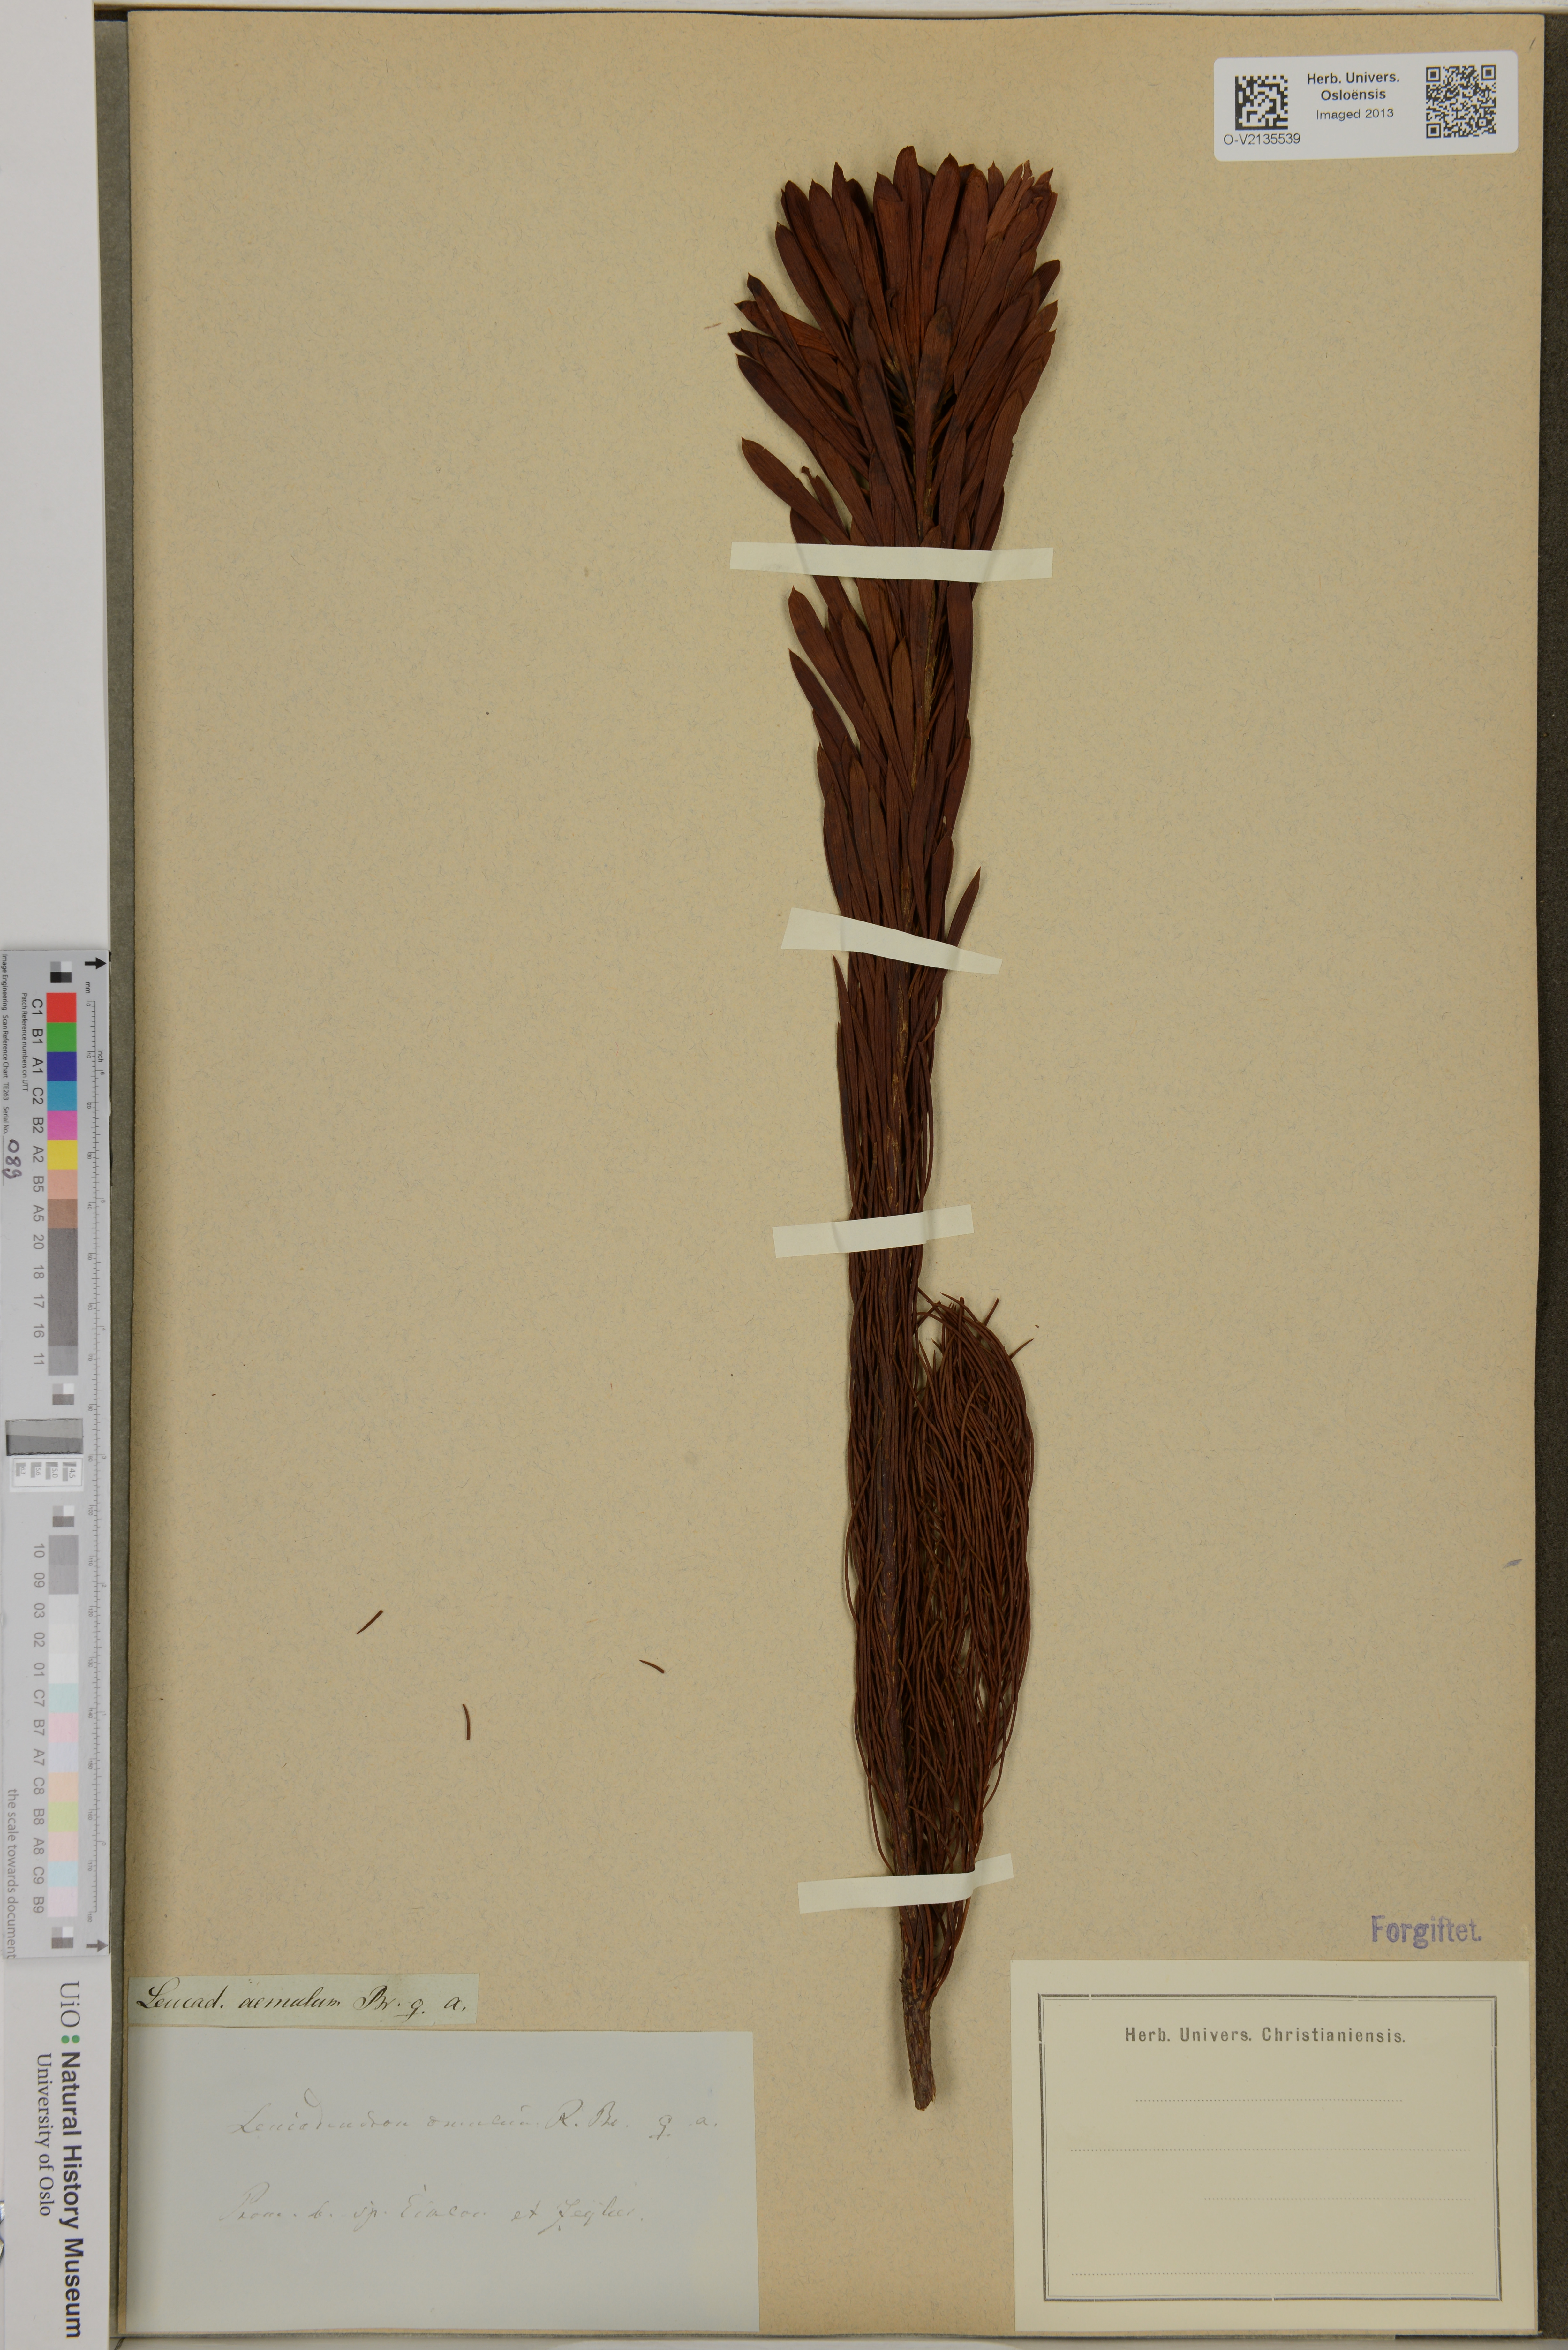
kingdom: Plantae
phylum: Tracheophyta
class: Magnoliopsida
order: Proteales
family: Proteaceae
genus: Leucadendron
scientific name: Leucadendron comosum
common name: Ridge-cone conebush
